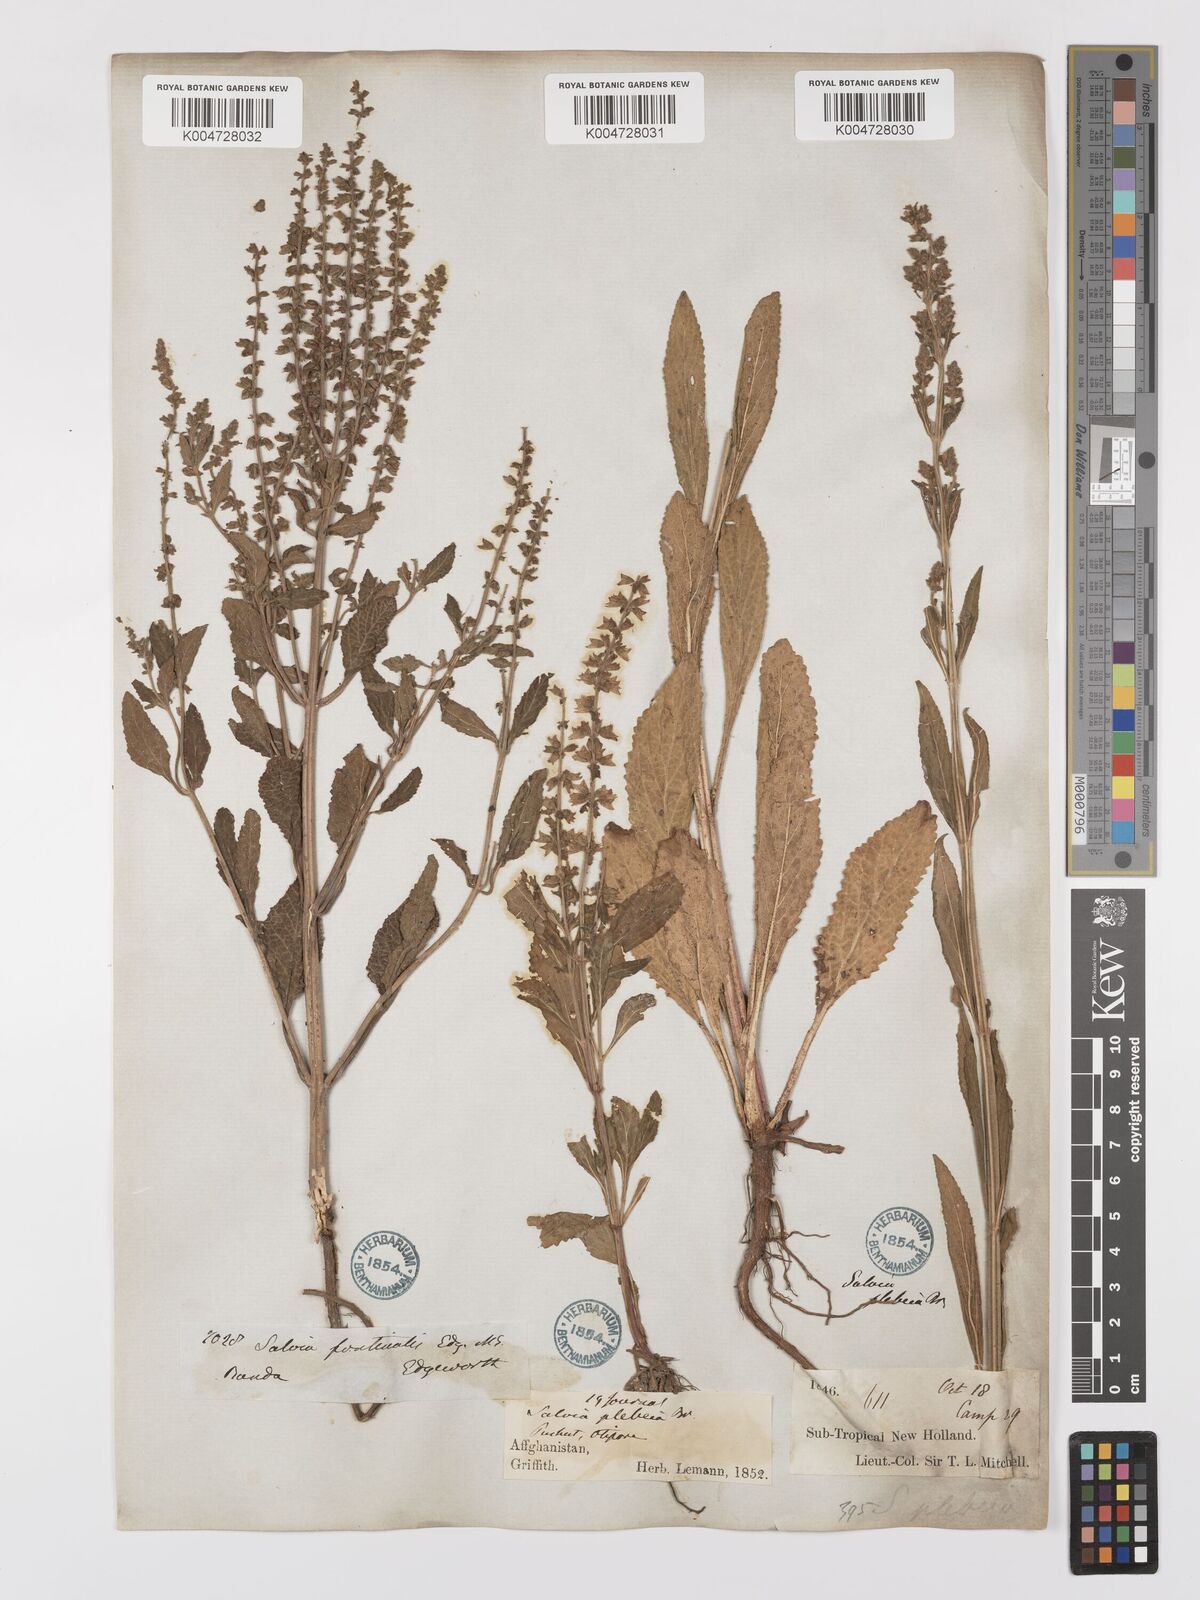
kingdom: Plantae
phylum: Tracheophyta
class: Magnoliopsida
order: Lamiales
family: Lamiaceae
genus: Salvia
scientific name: Salvia plebeia
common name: Australian sage
